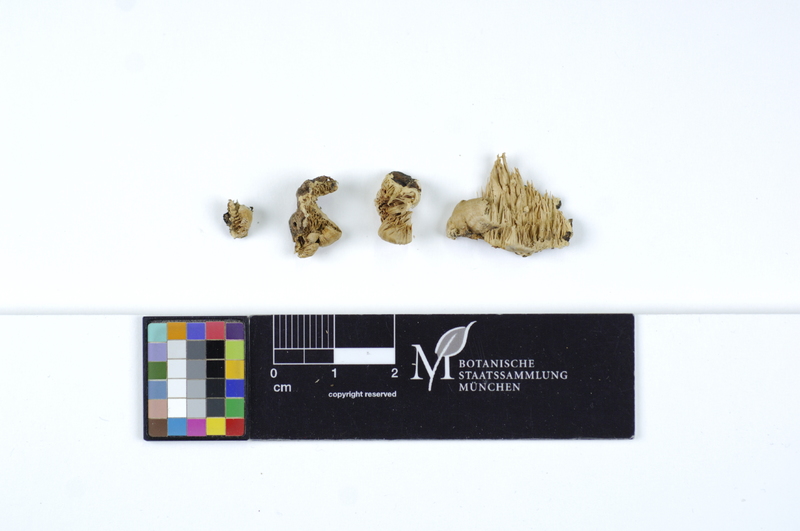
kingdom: Fungi
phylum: Basidiomycota
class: Agaricomycetes
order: Polyporales
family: Cerrenaceae
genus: Cerrena
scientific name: Cerrena zonata
